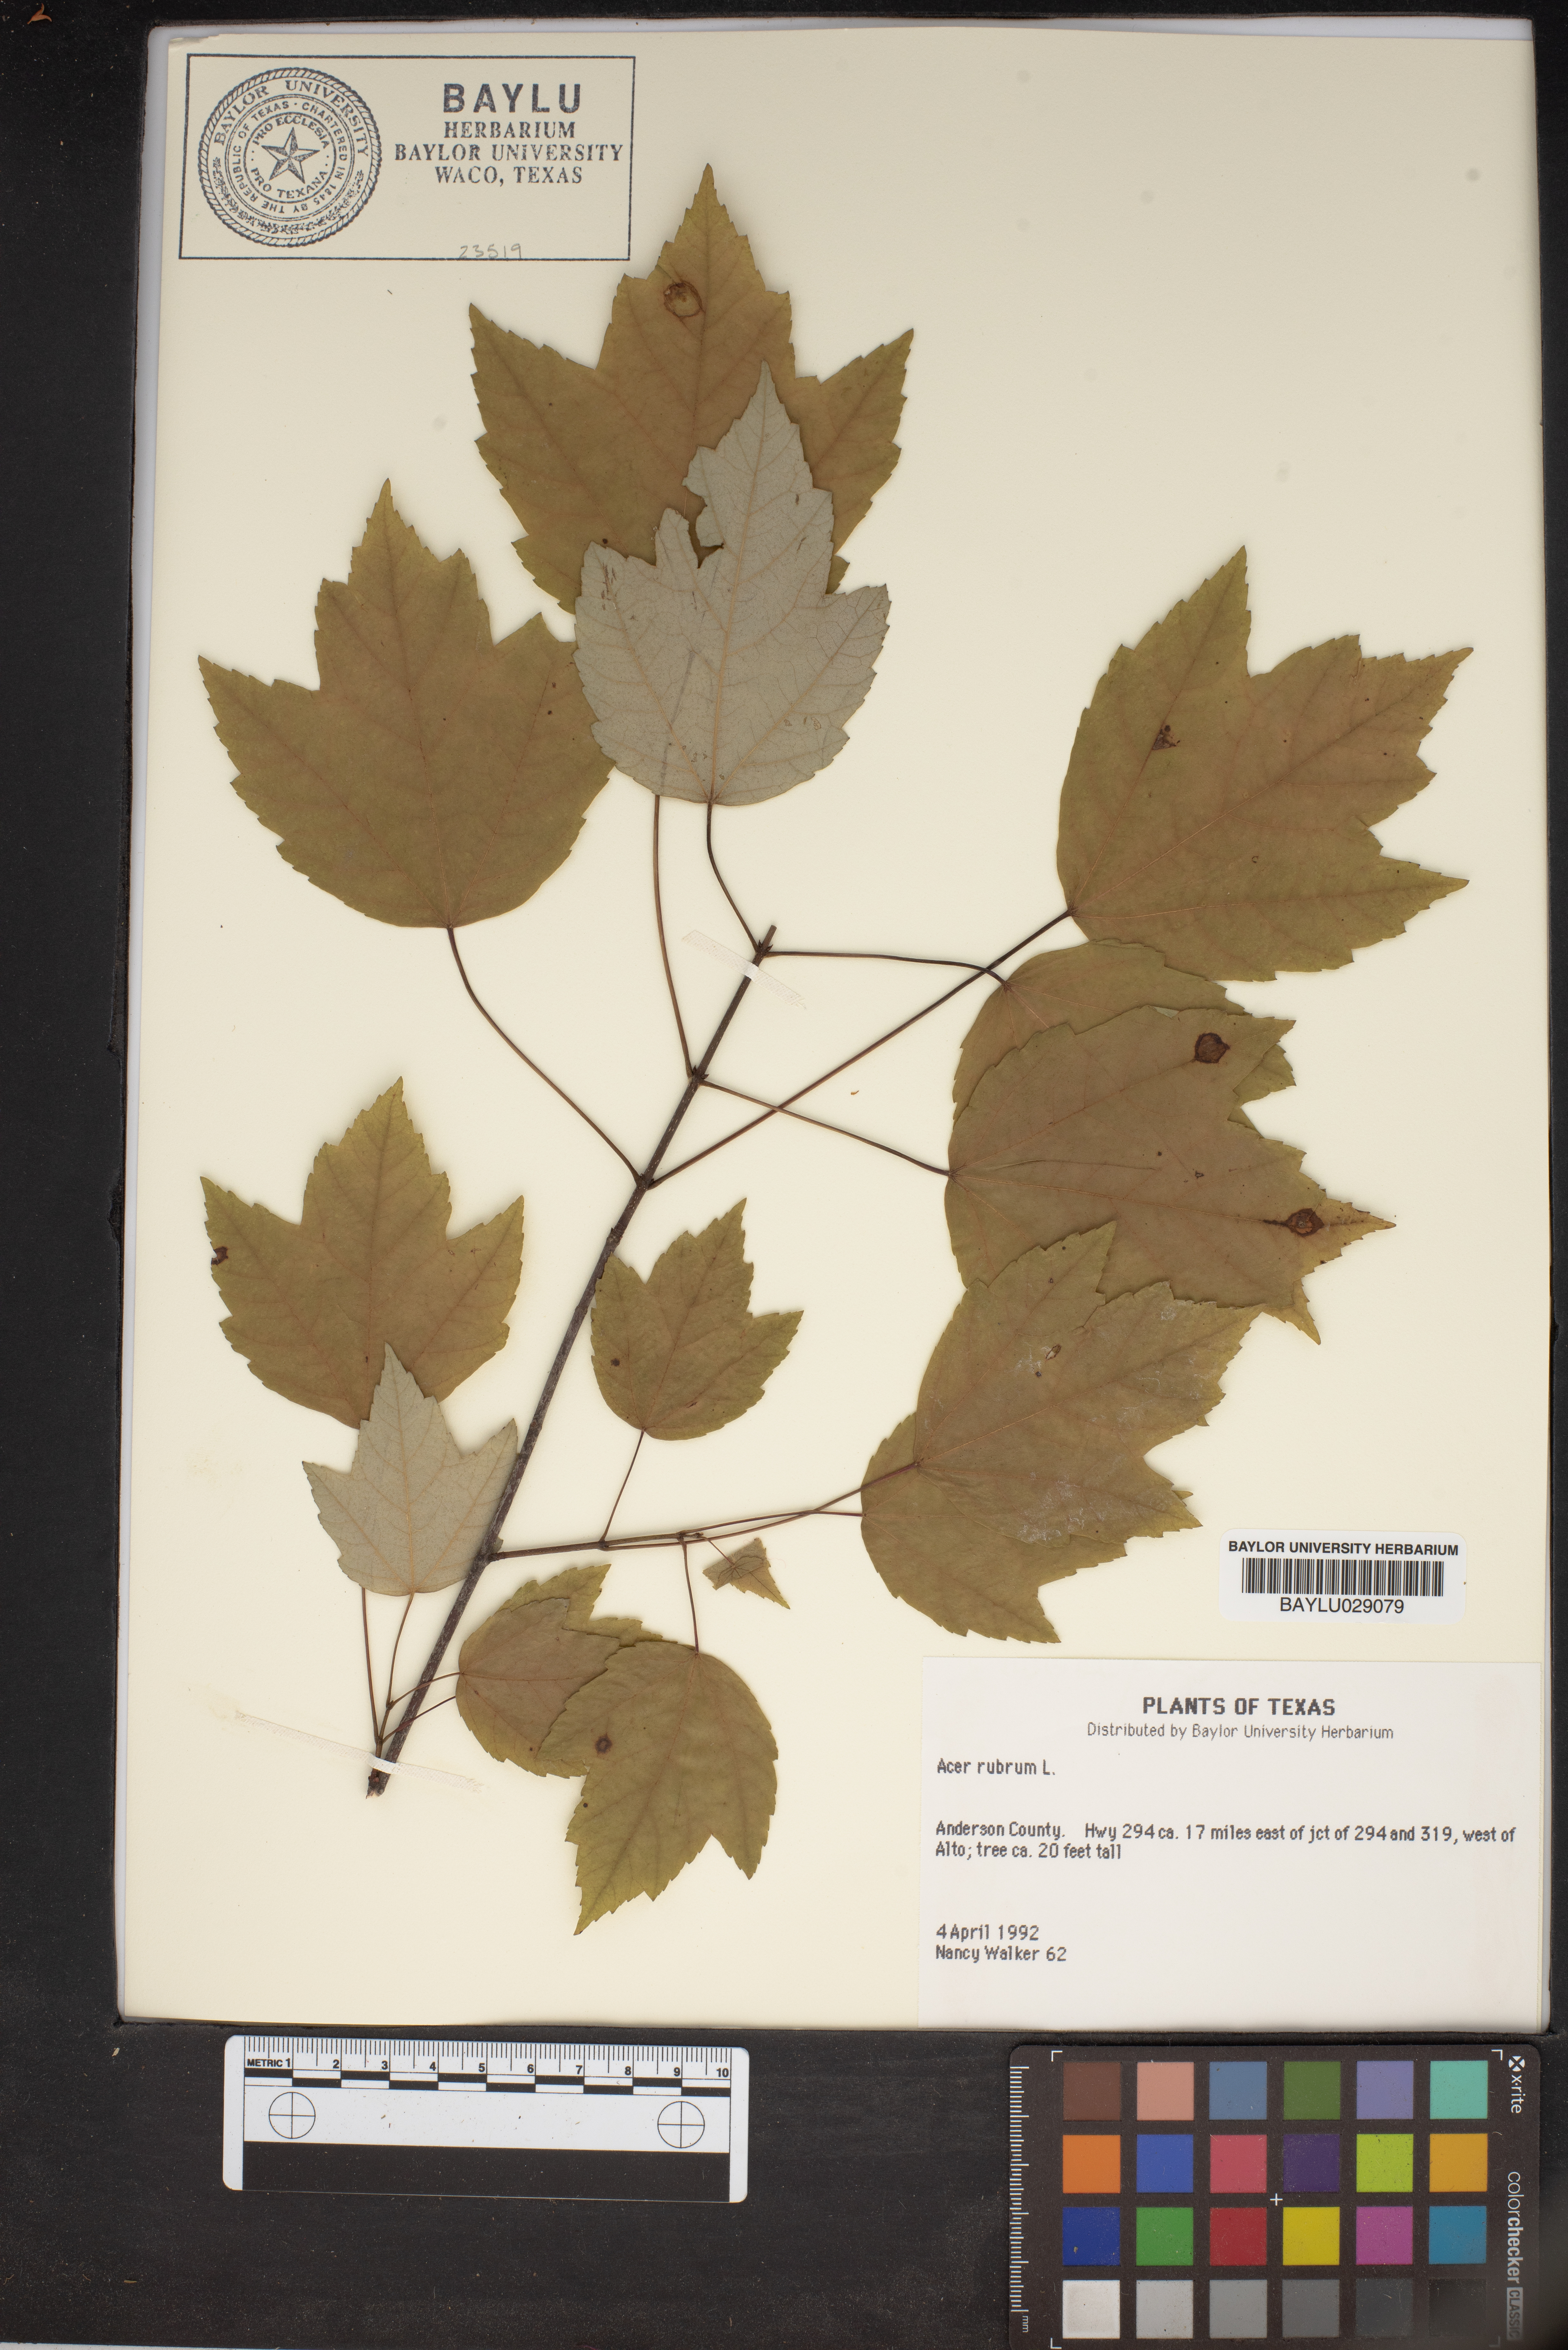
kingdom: Plantae
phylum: Tracheophyta
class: Magnoliopsida
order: Sapindales
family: Sapindaceae
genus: Acer
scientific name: Acer rubrum
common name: Red maple
